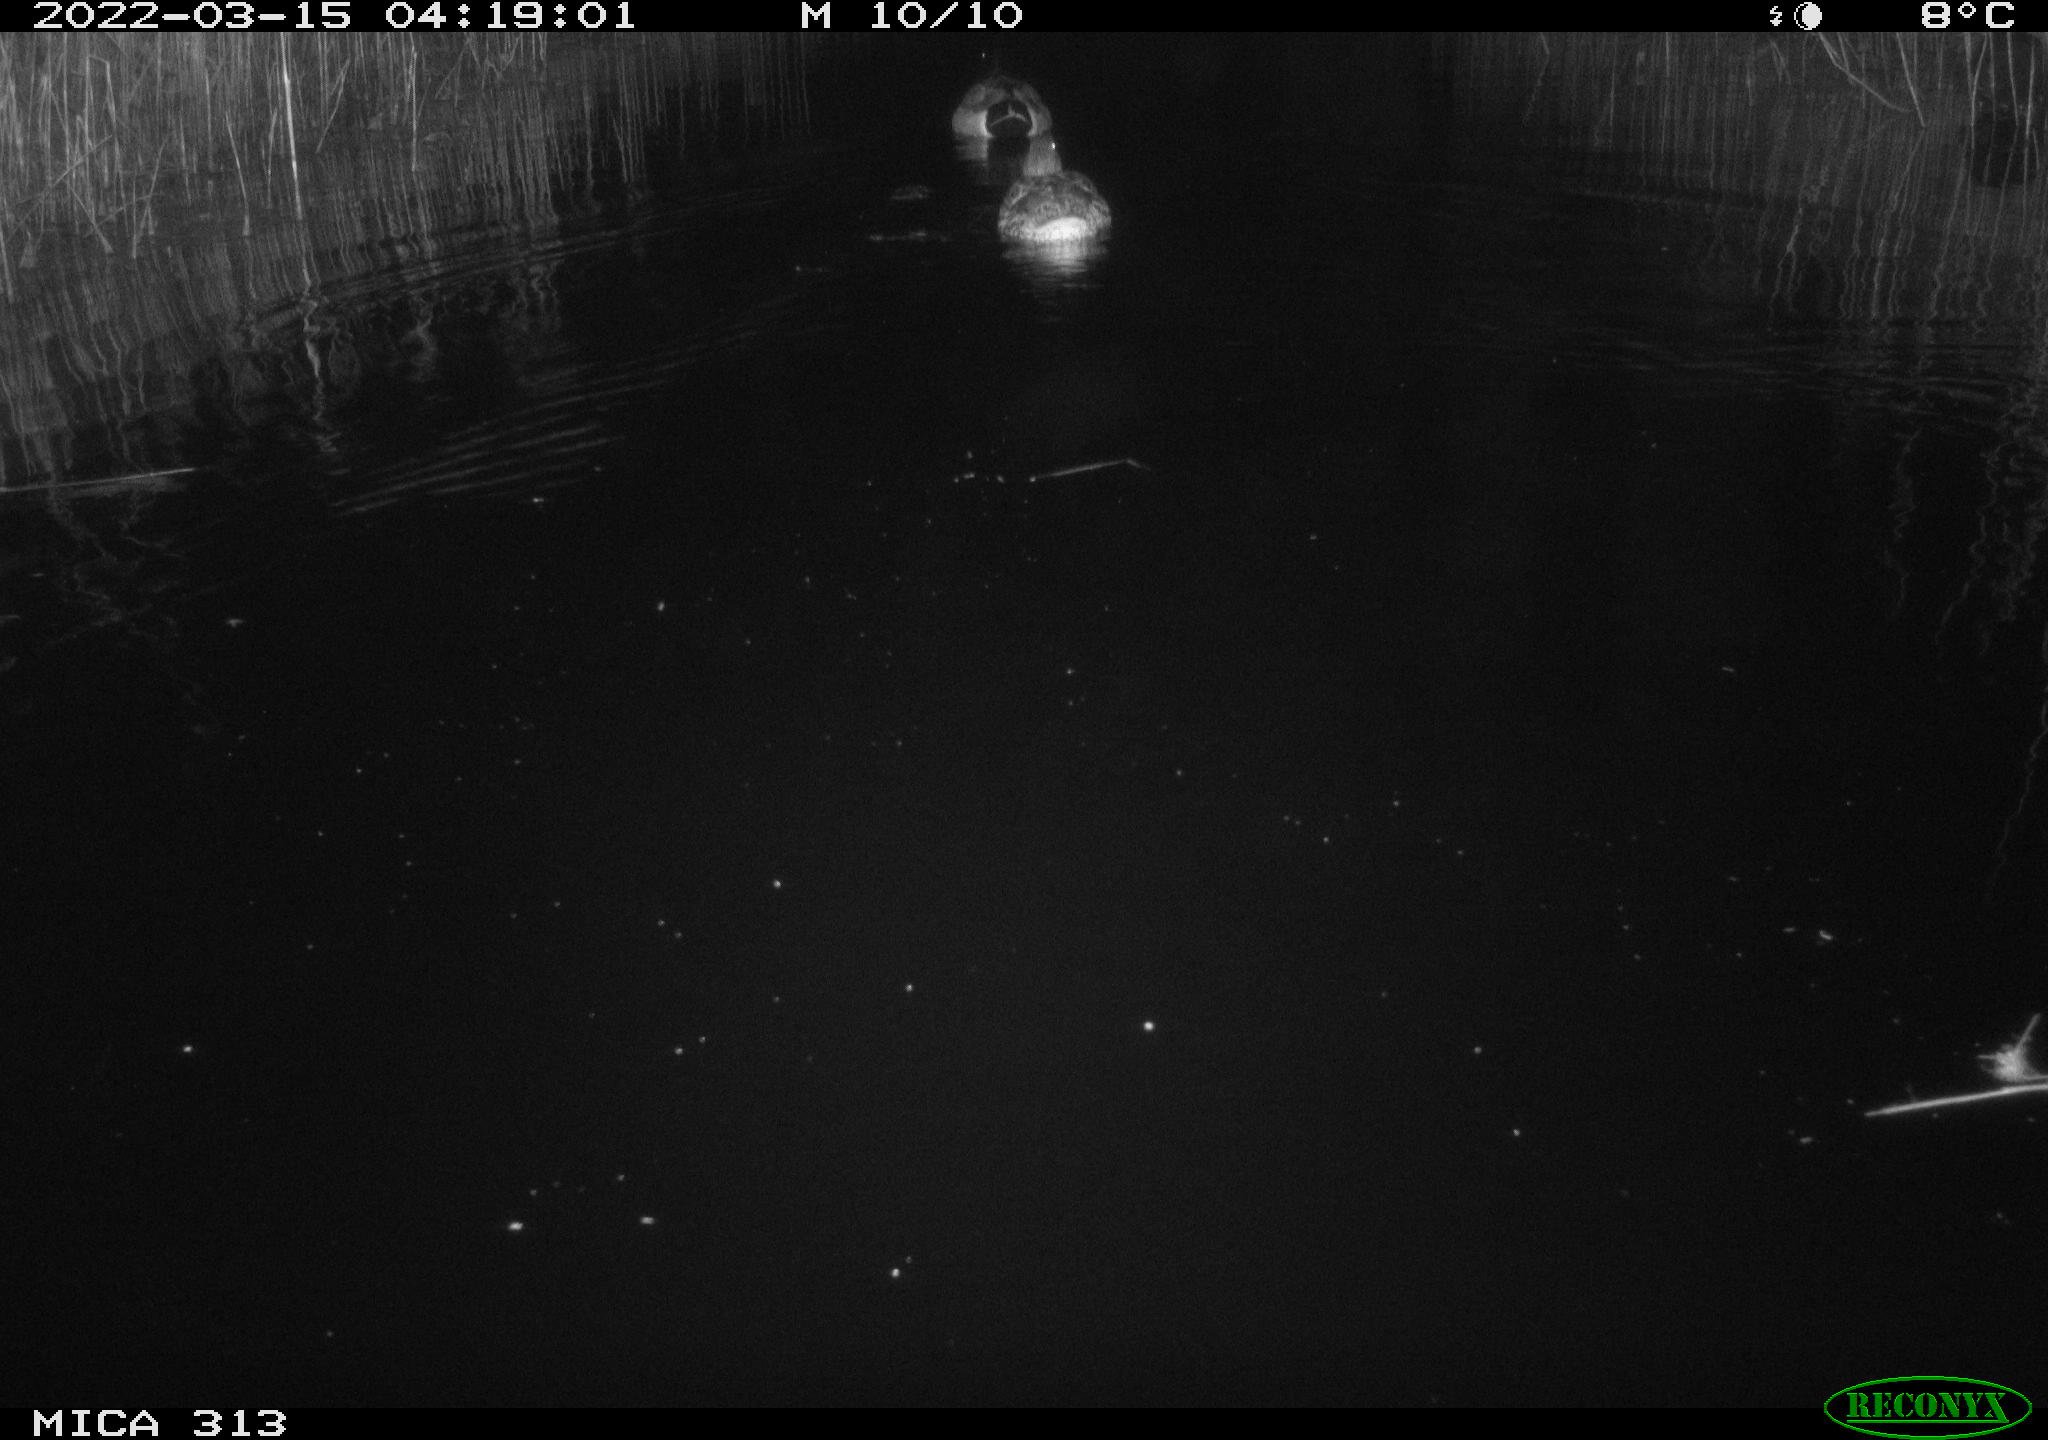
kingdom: Animalia
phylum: Chordata
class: Aves
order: Anseriformes
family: Anatidae
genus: Anas
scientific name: Anas platyrhynchos
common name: Mallard
